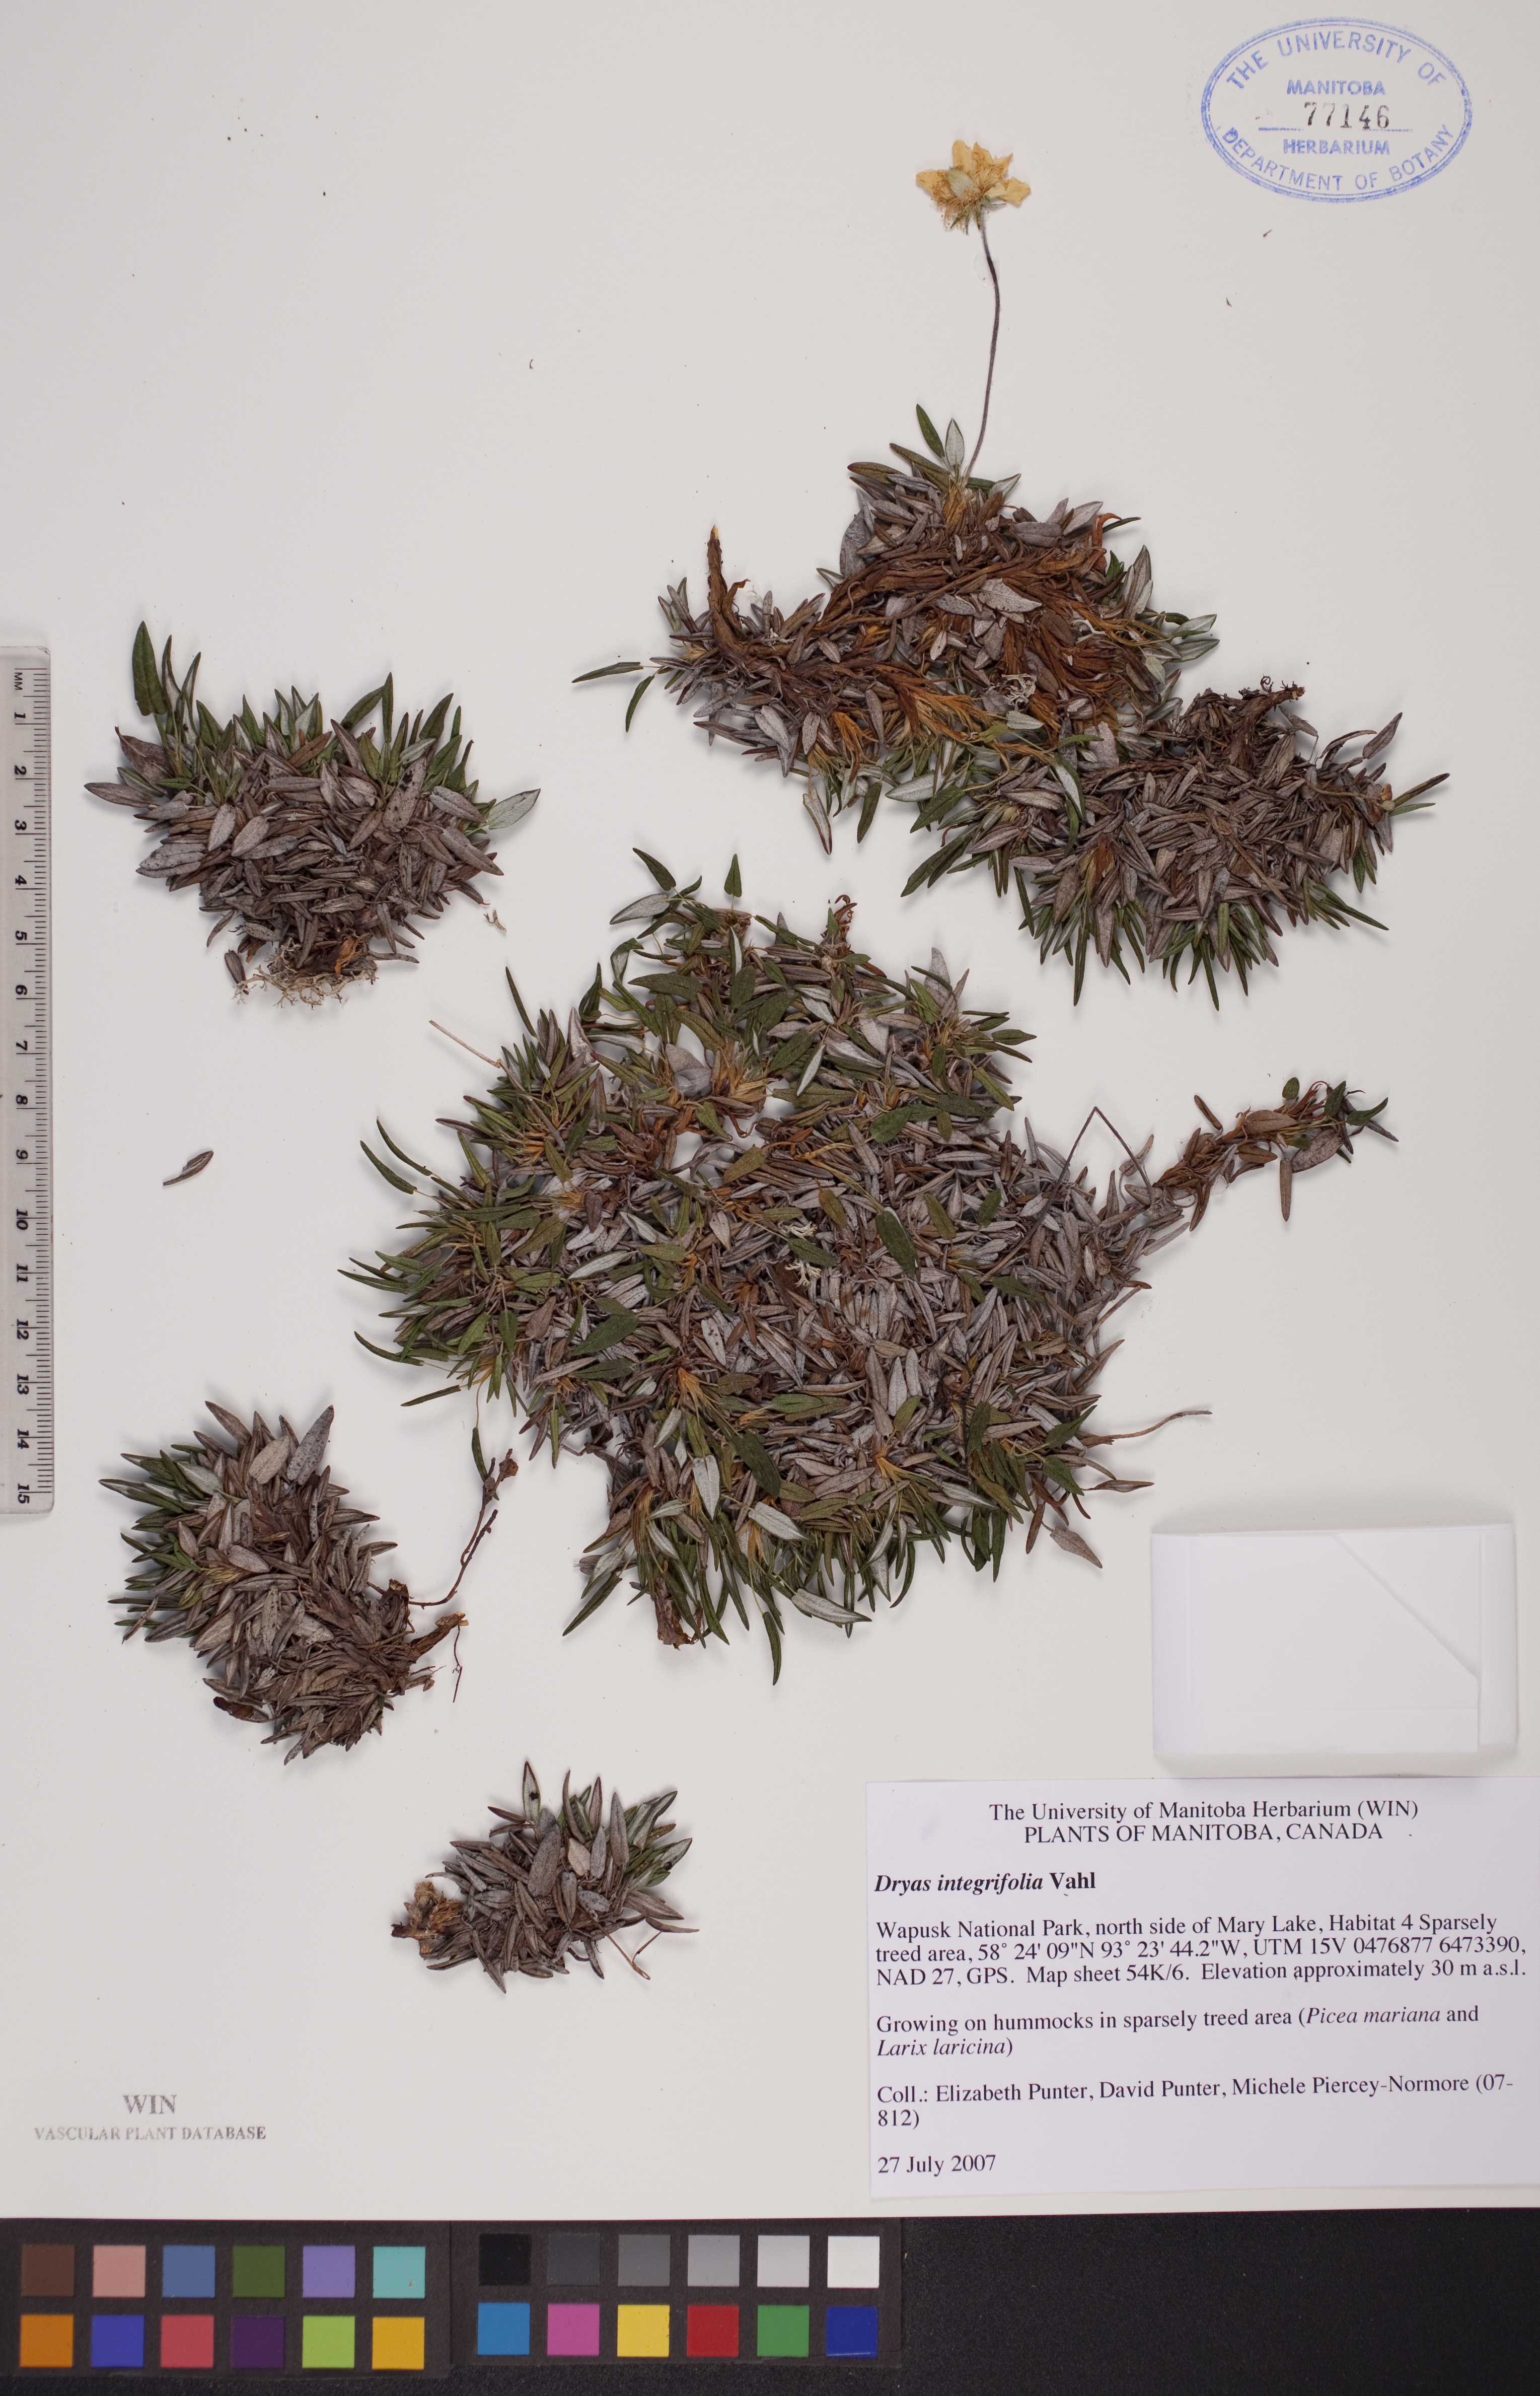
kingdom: Plantae
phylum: Tracheophyta
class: Magnoliopsida
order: Rosales
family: Rosaceae
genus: Dryas
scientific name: Dryas integrifolia
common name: Entire-leaved mountain avens
